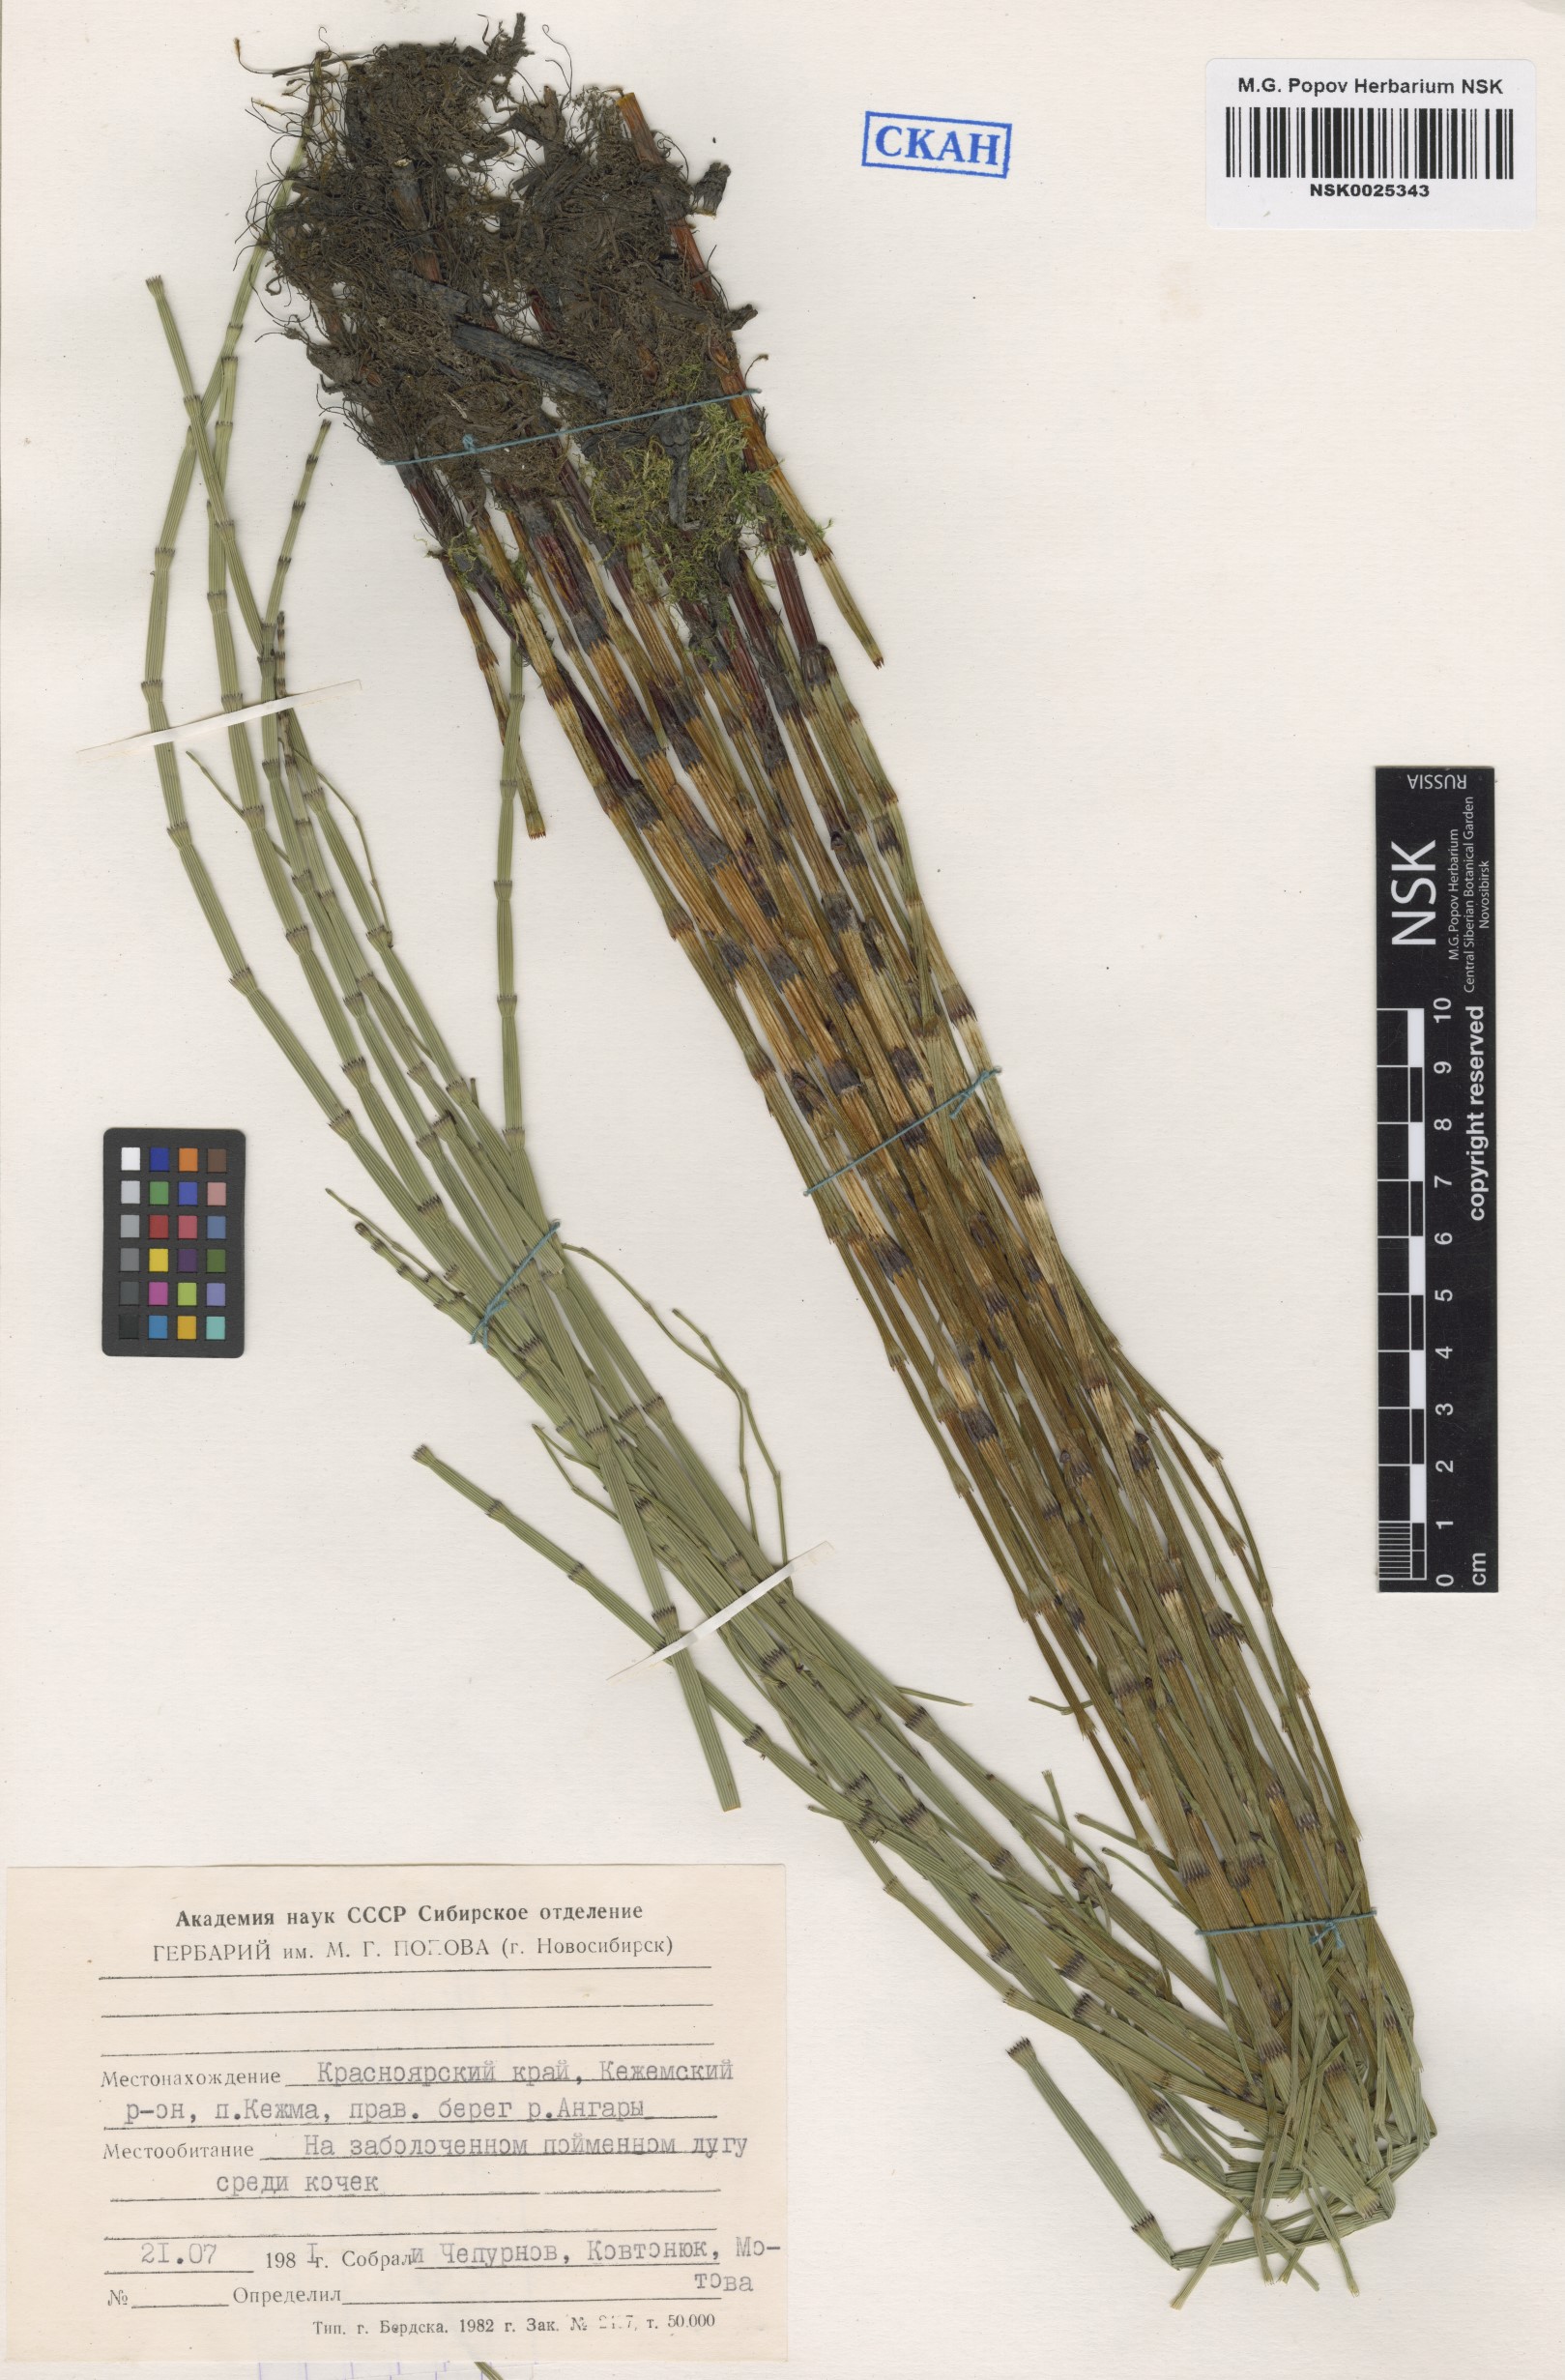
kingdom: Plantae
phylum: Tracheophyta
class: Polypodiopsida
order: Equisetales
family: Equisetaceae
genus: Equisetum
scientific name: Equisetum fluviatile
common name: Water horsetail
